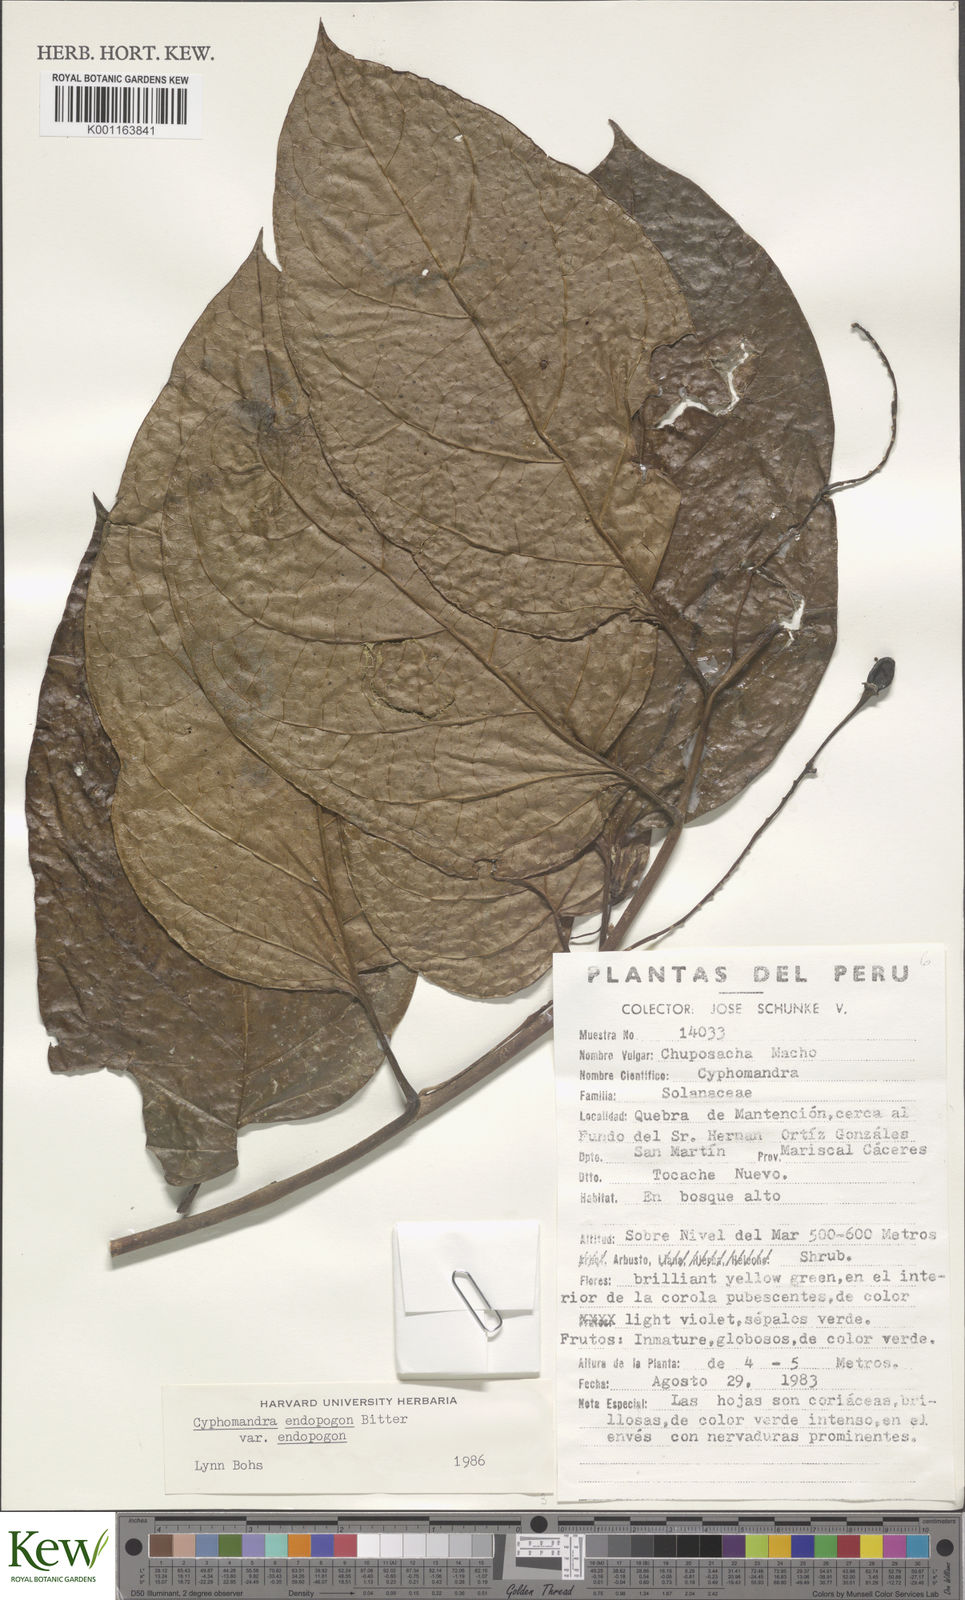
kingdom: Plantae
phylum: Tracheophyta
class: Magnoliopsida
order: Solanales
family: Solanaceae
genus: Solanum
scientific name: Solanum endopogon
